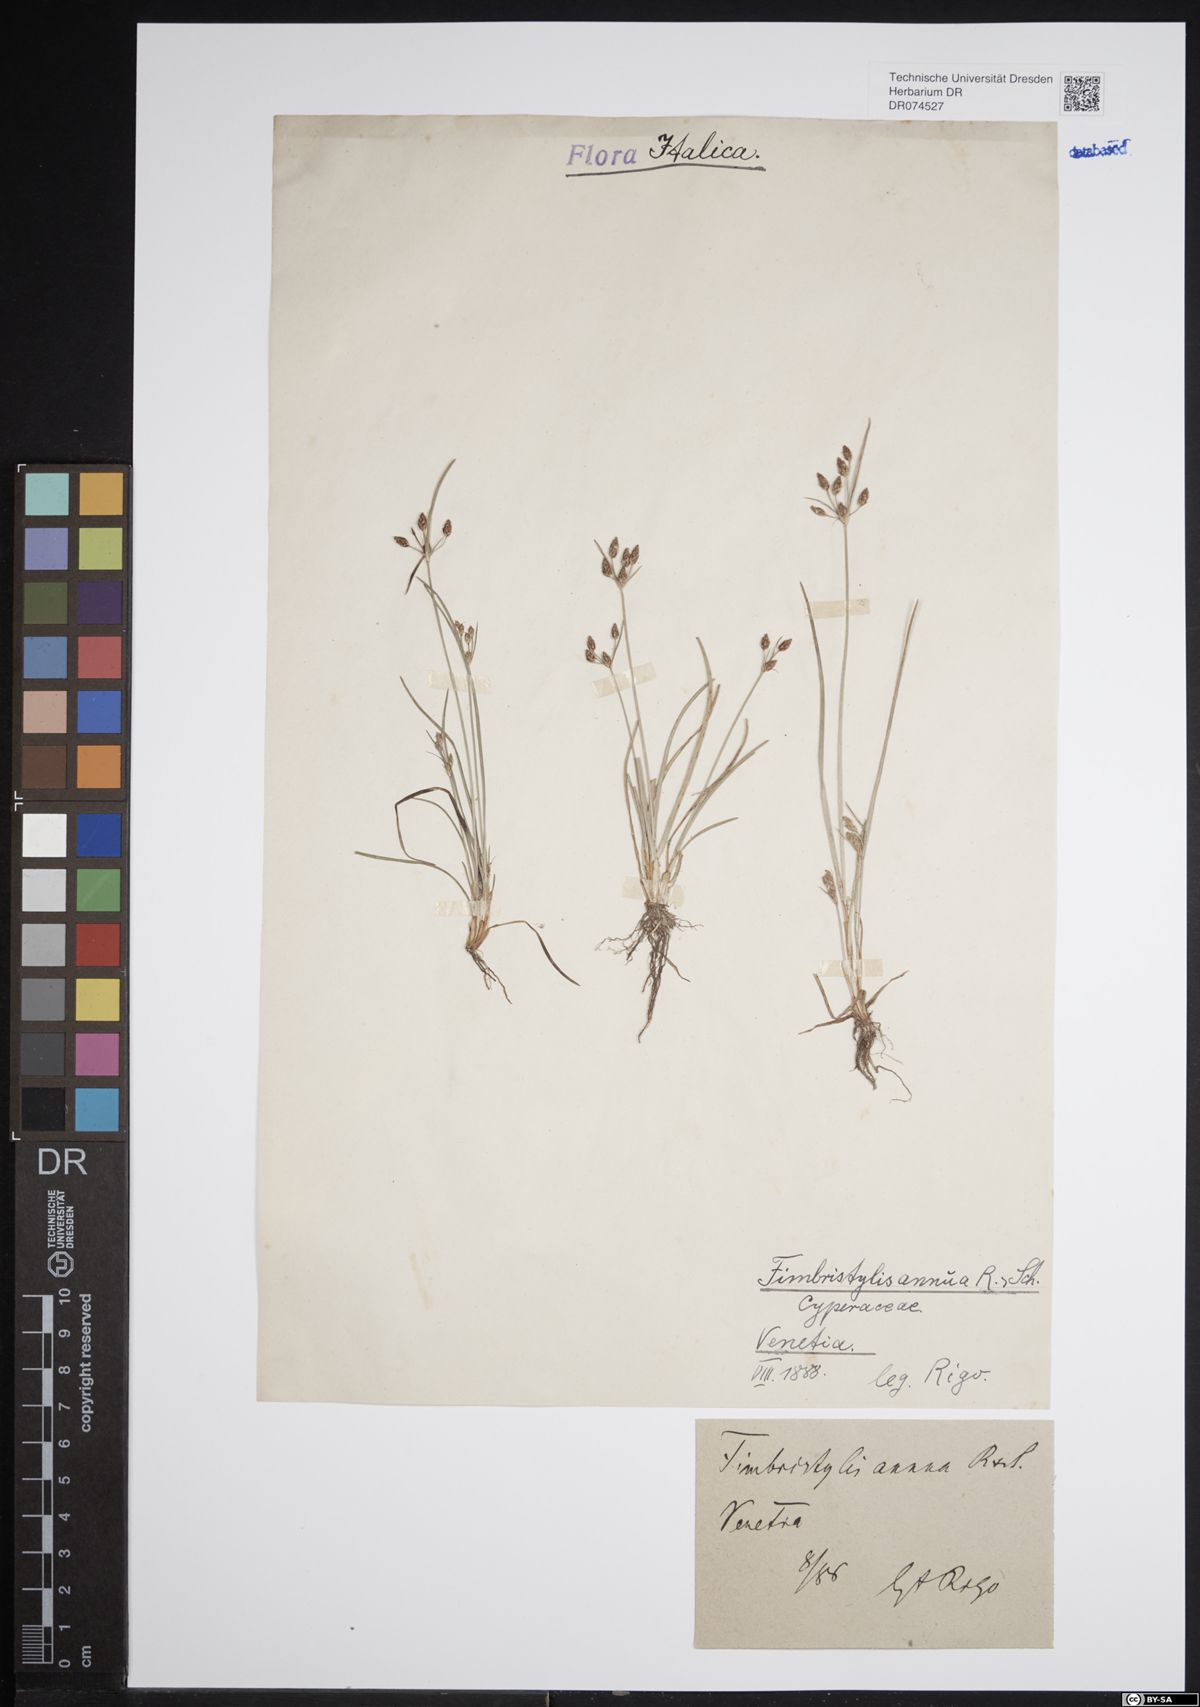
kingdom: Plantae
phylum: Tracheophyta
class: Liliopsida
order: Poales
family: Cyperaceae
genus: Fimbristylis
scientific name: Fimbristylis dichotoma
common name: Forked fimbry
